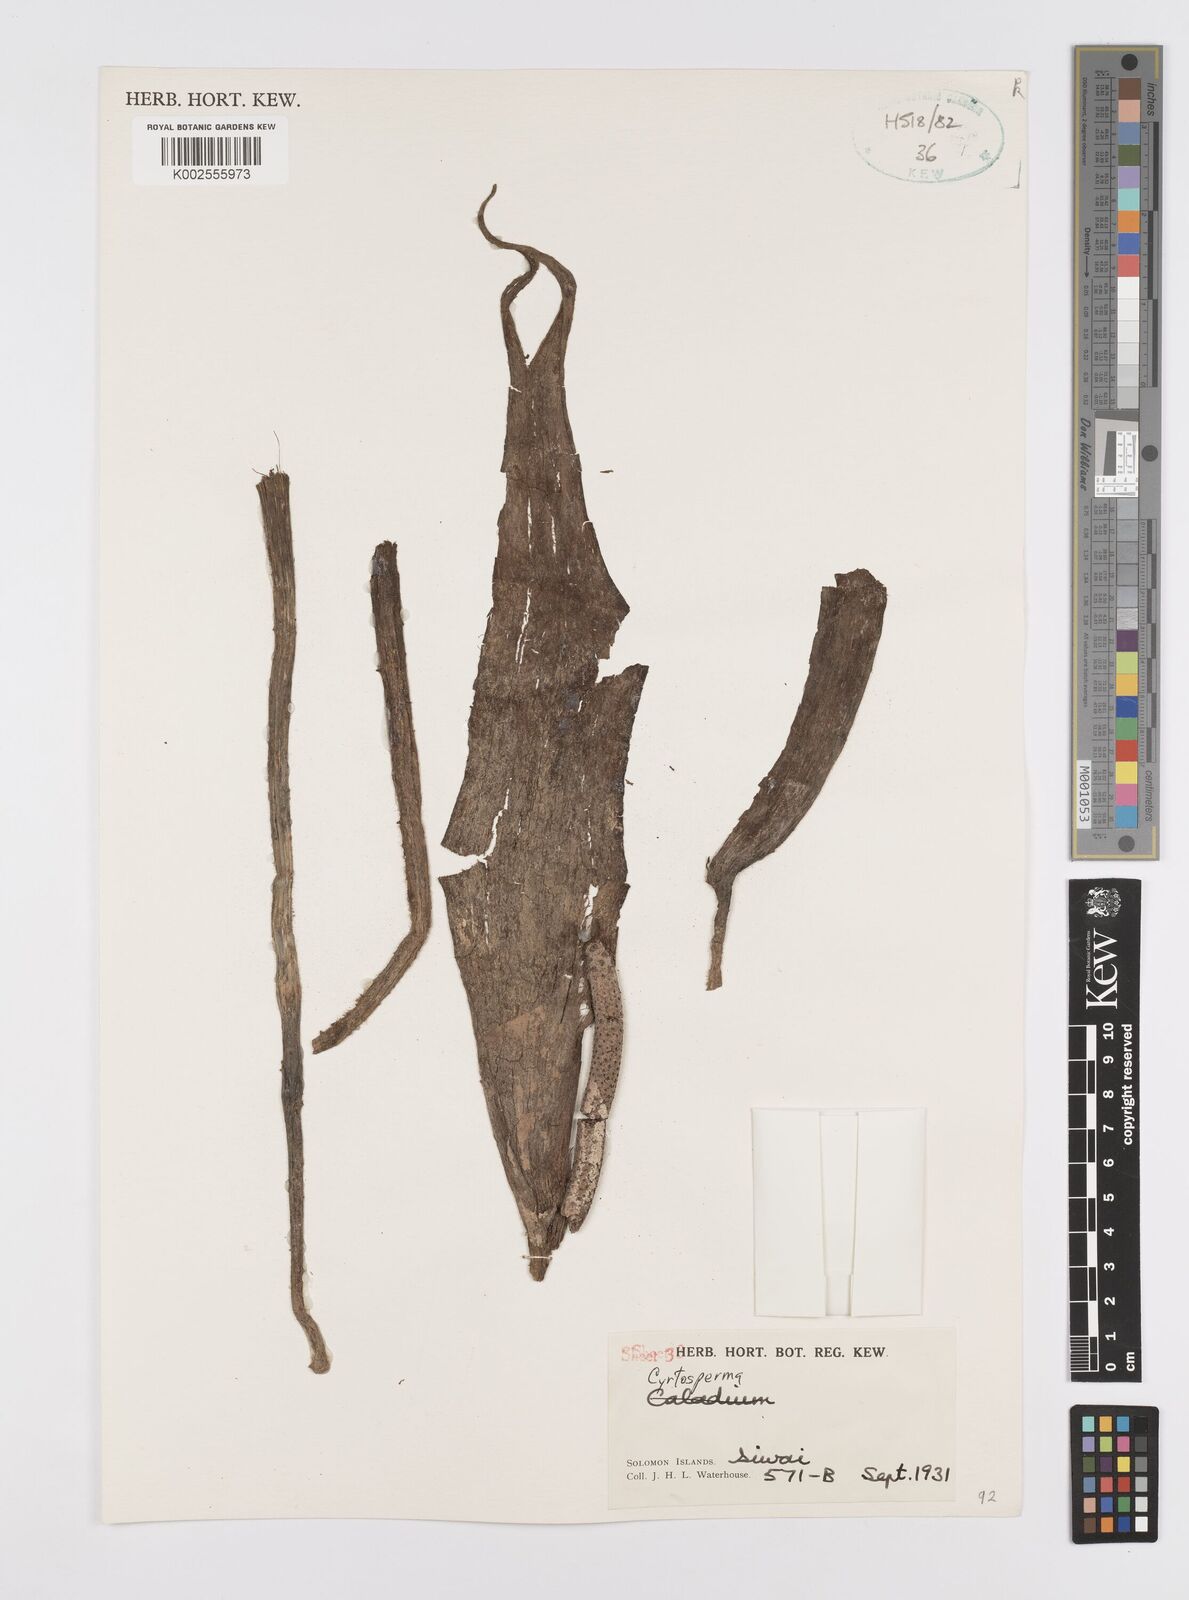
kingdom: Plantae
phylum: Tracheophyta
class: Liliopsida
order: Alismatales
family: Araceae
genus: Cyrtosperma
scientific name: Cyrtosperma bougainvillense
